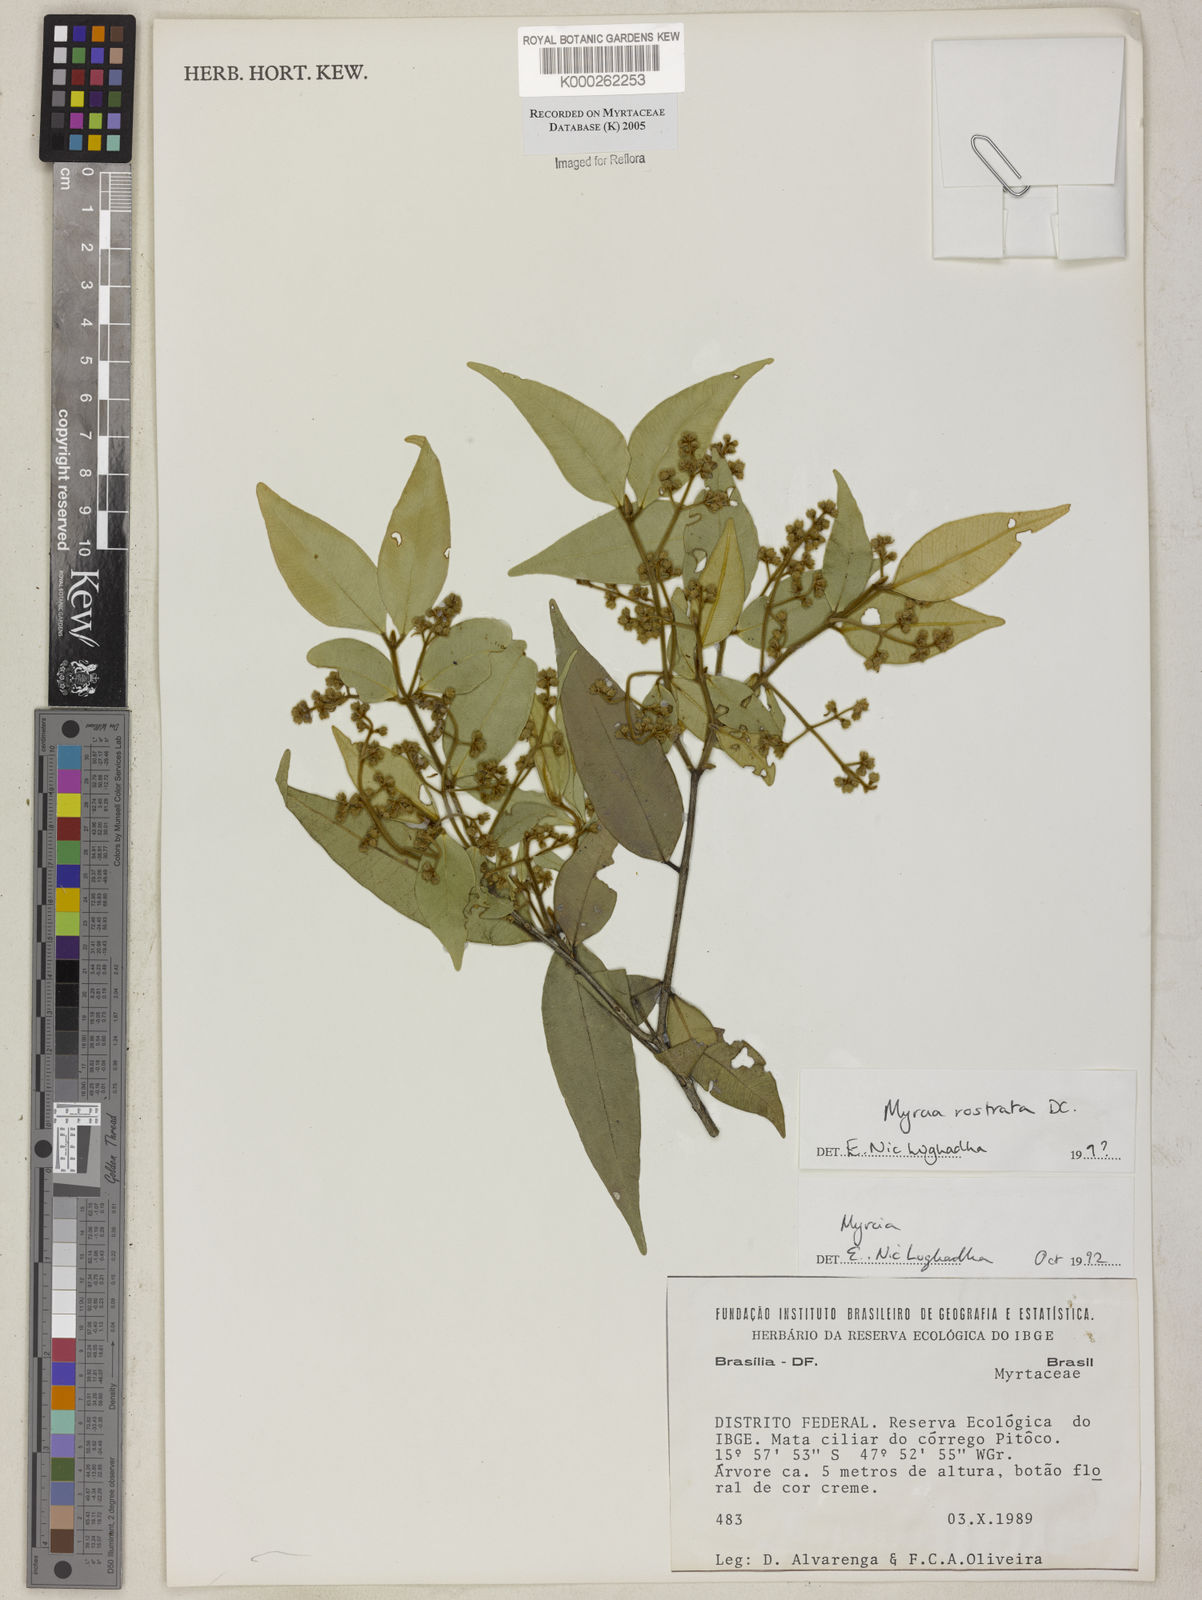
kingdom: Plantae
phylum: Tracheophyta
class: Magnoliopsida
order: Myrtales
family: Myrtaceae
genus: Myrcia
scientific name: Myrcia splendens
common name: Surinam cherry
